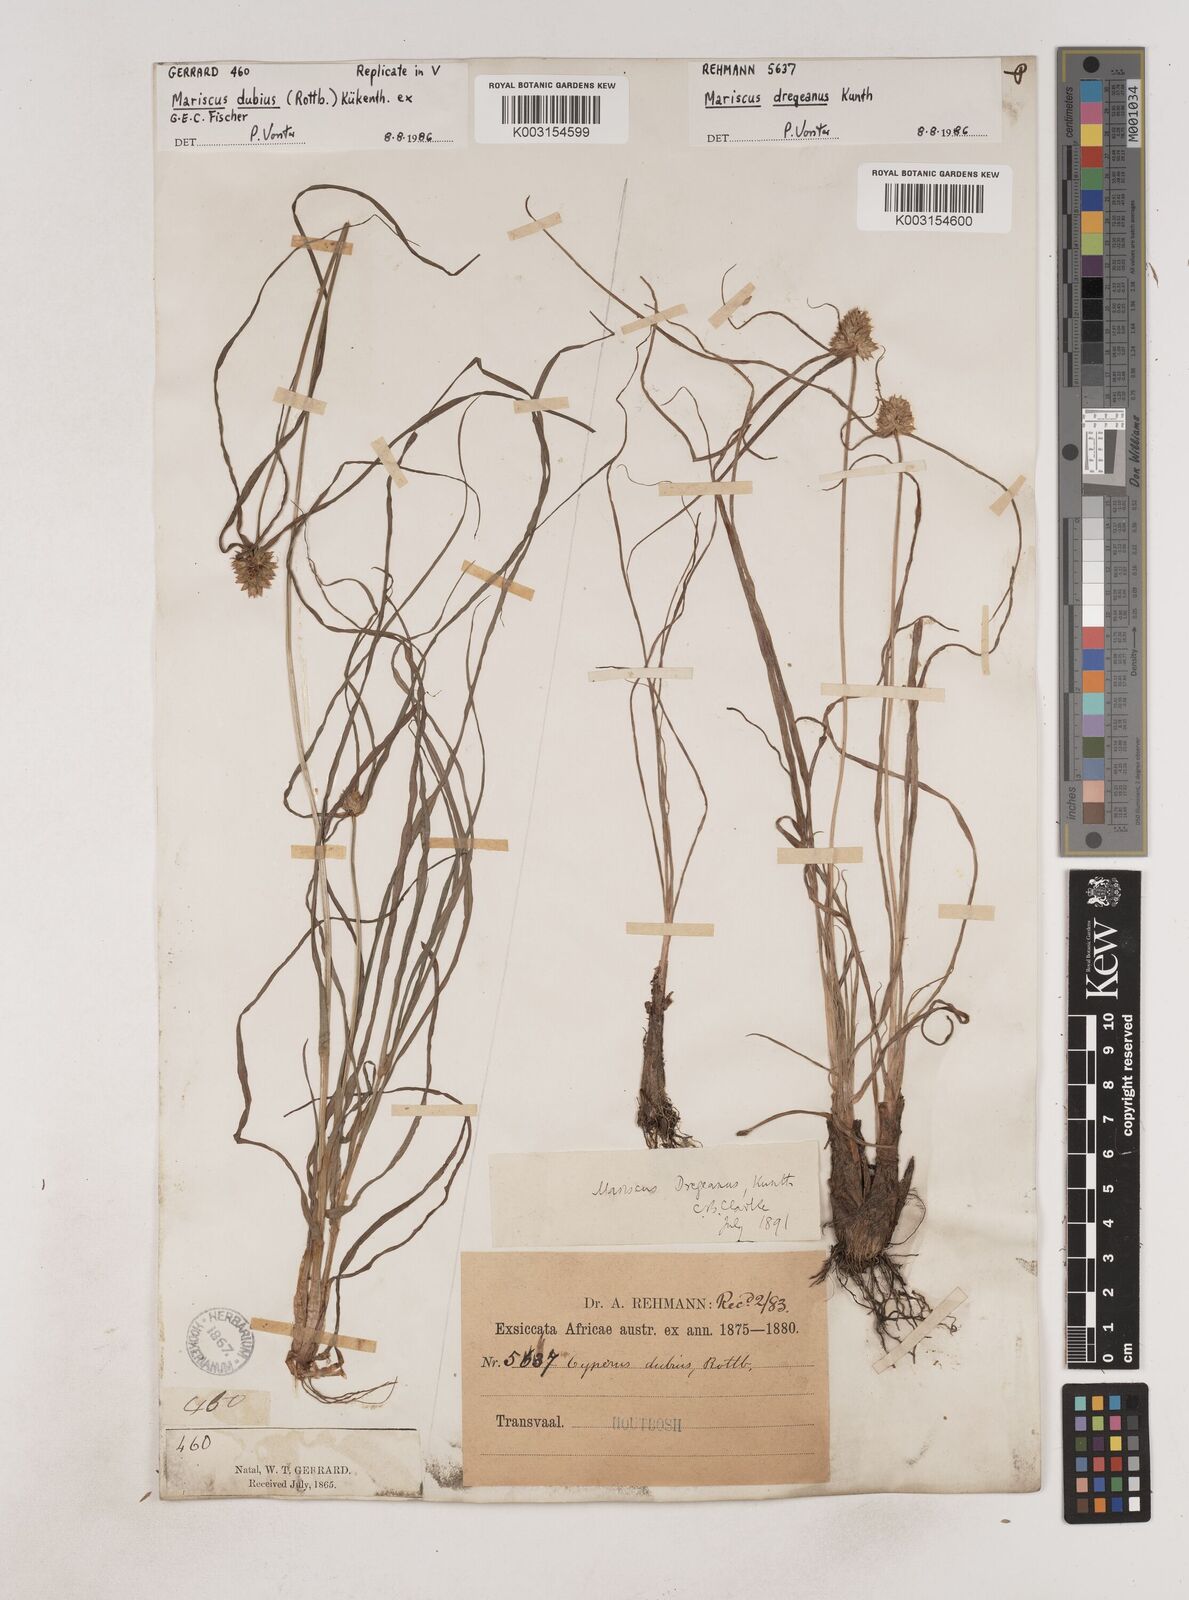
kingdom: Plantae
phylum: Tracheophyta
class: Liliopsida
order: Poales
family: Cyperaceae
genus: Cyperus
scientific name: Cyperus dubius
